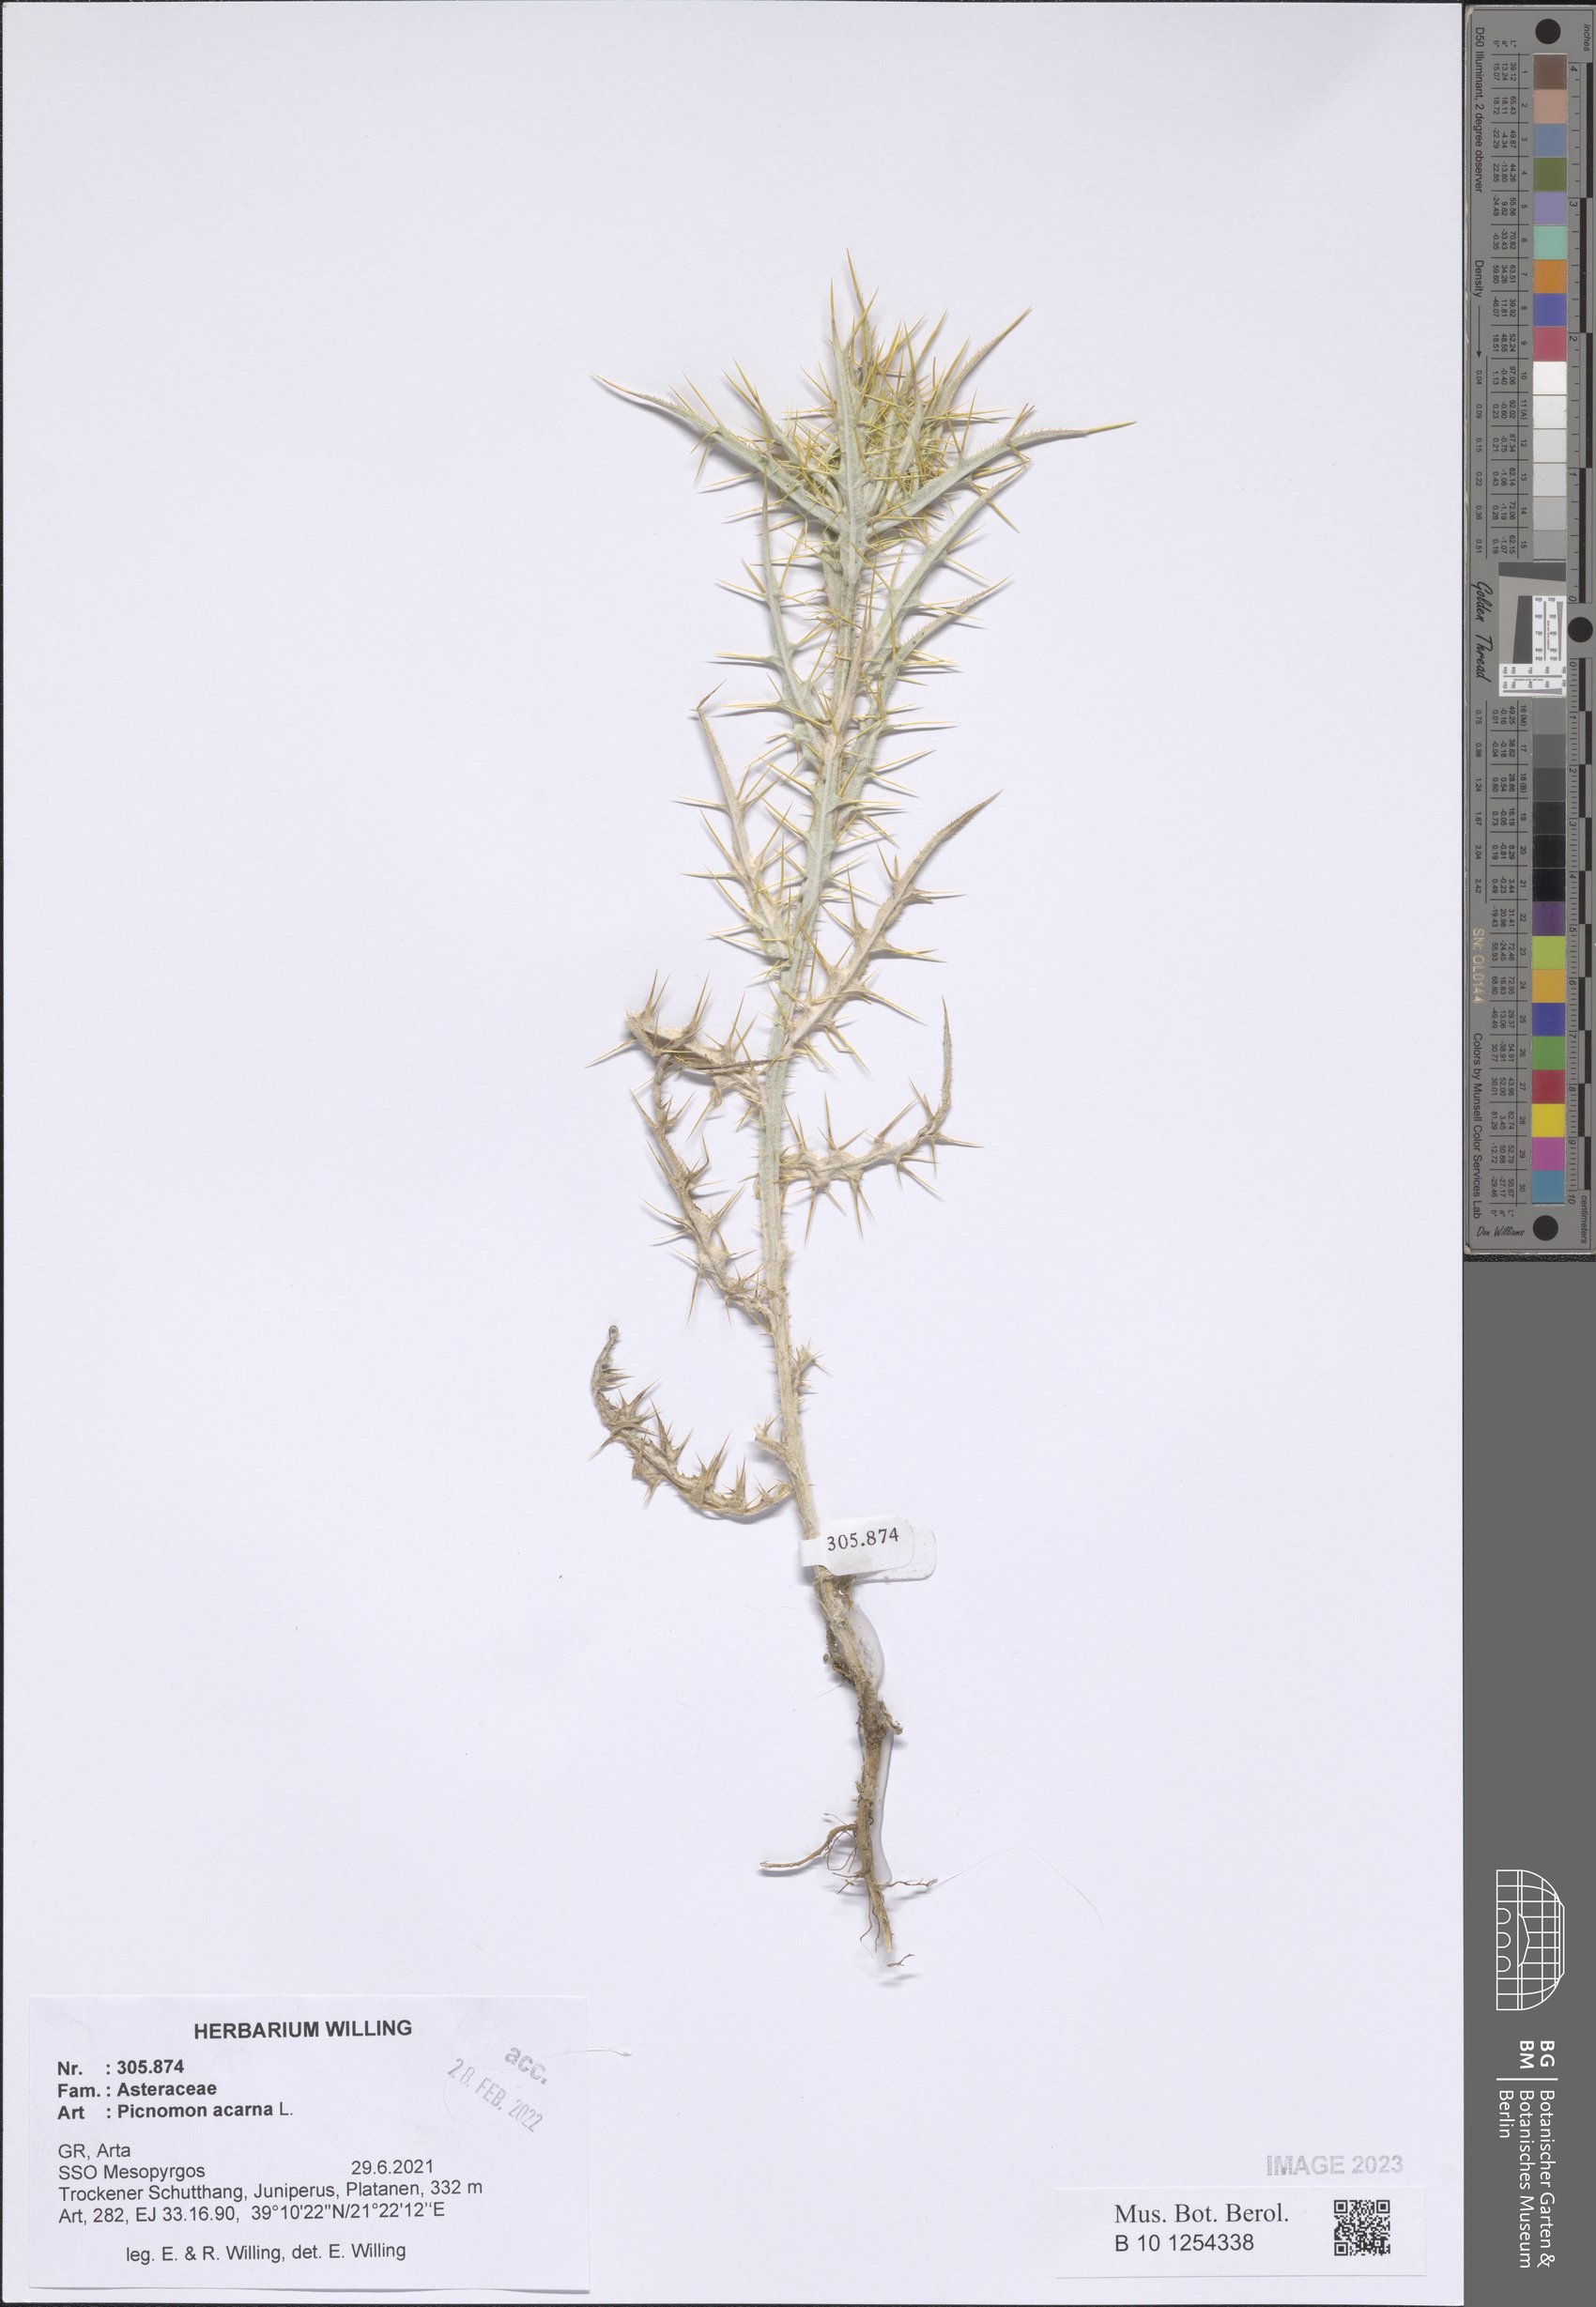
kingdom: Plantae
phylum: Tracheophyta
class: Magnoliopsida
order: Asterales
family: Asteraceae
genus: Picnomon
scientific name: Picnomon acarna
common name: Soldier thistle
